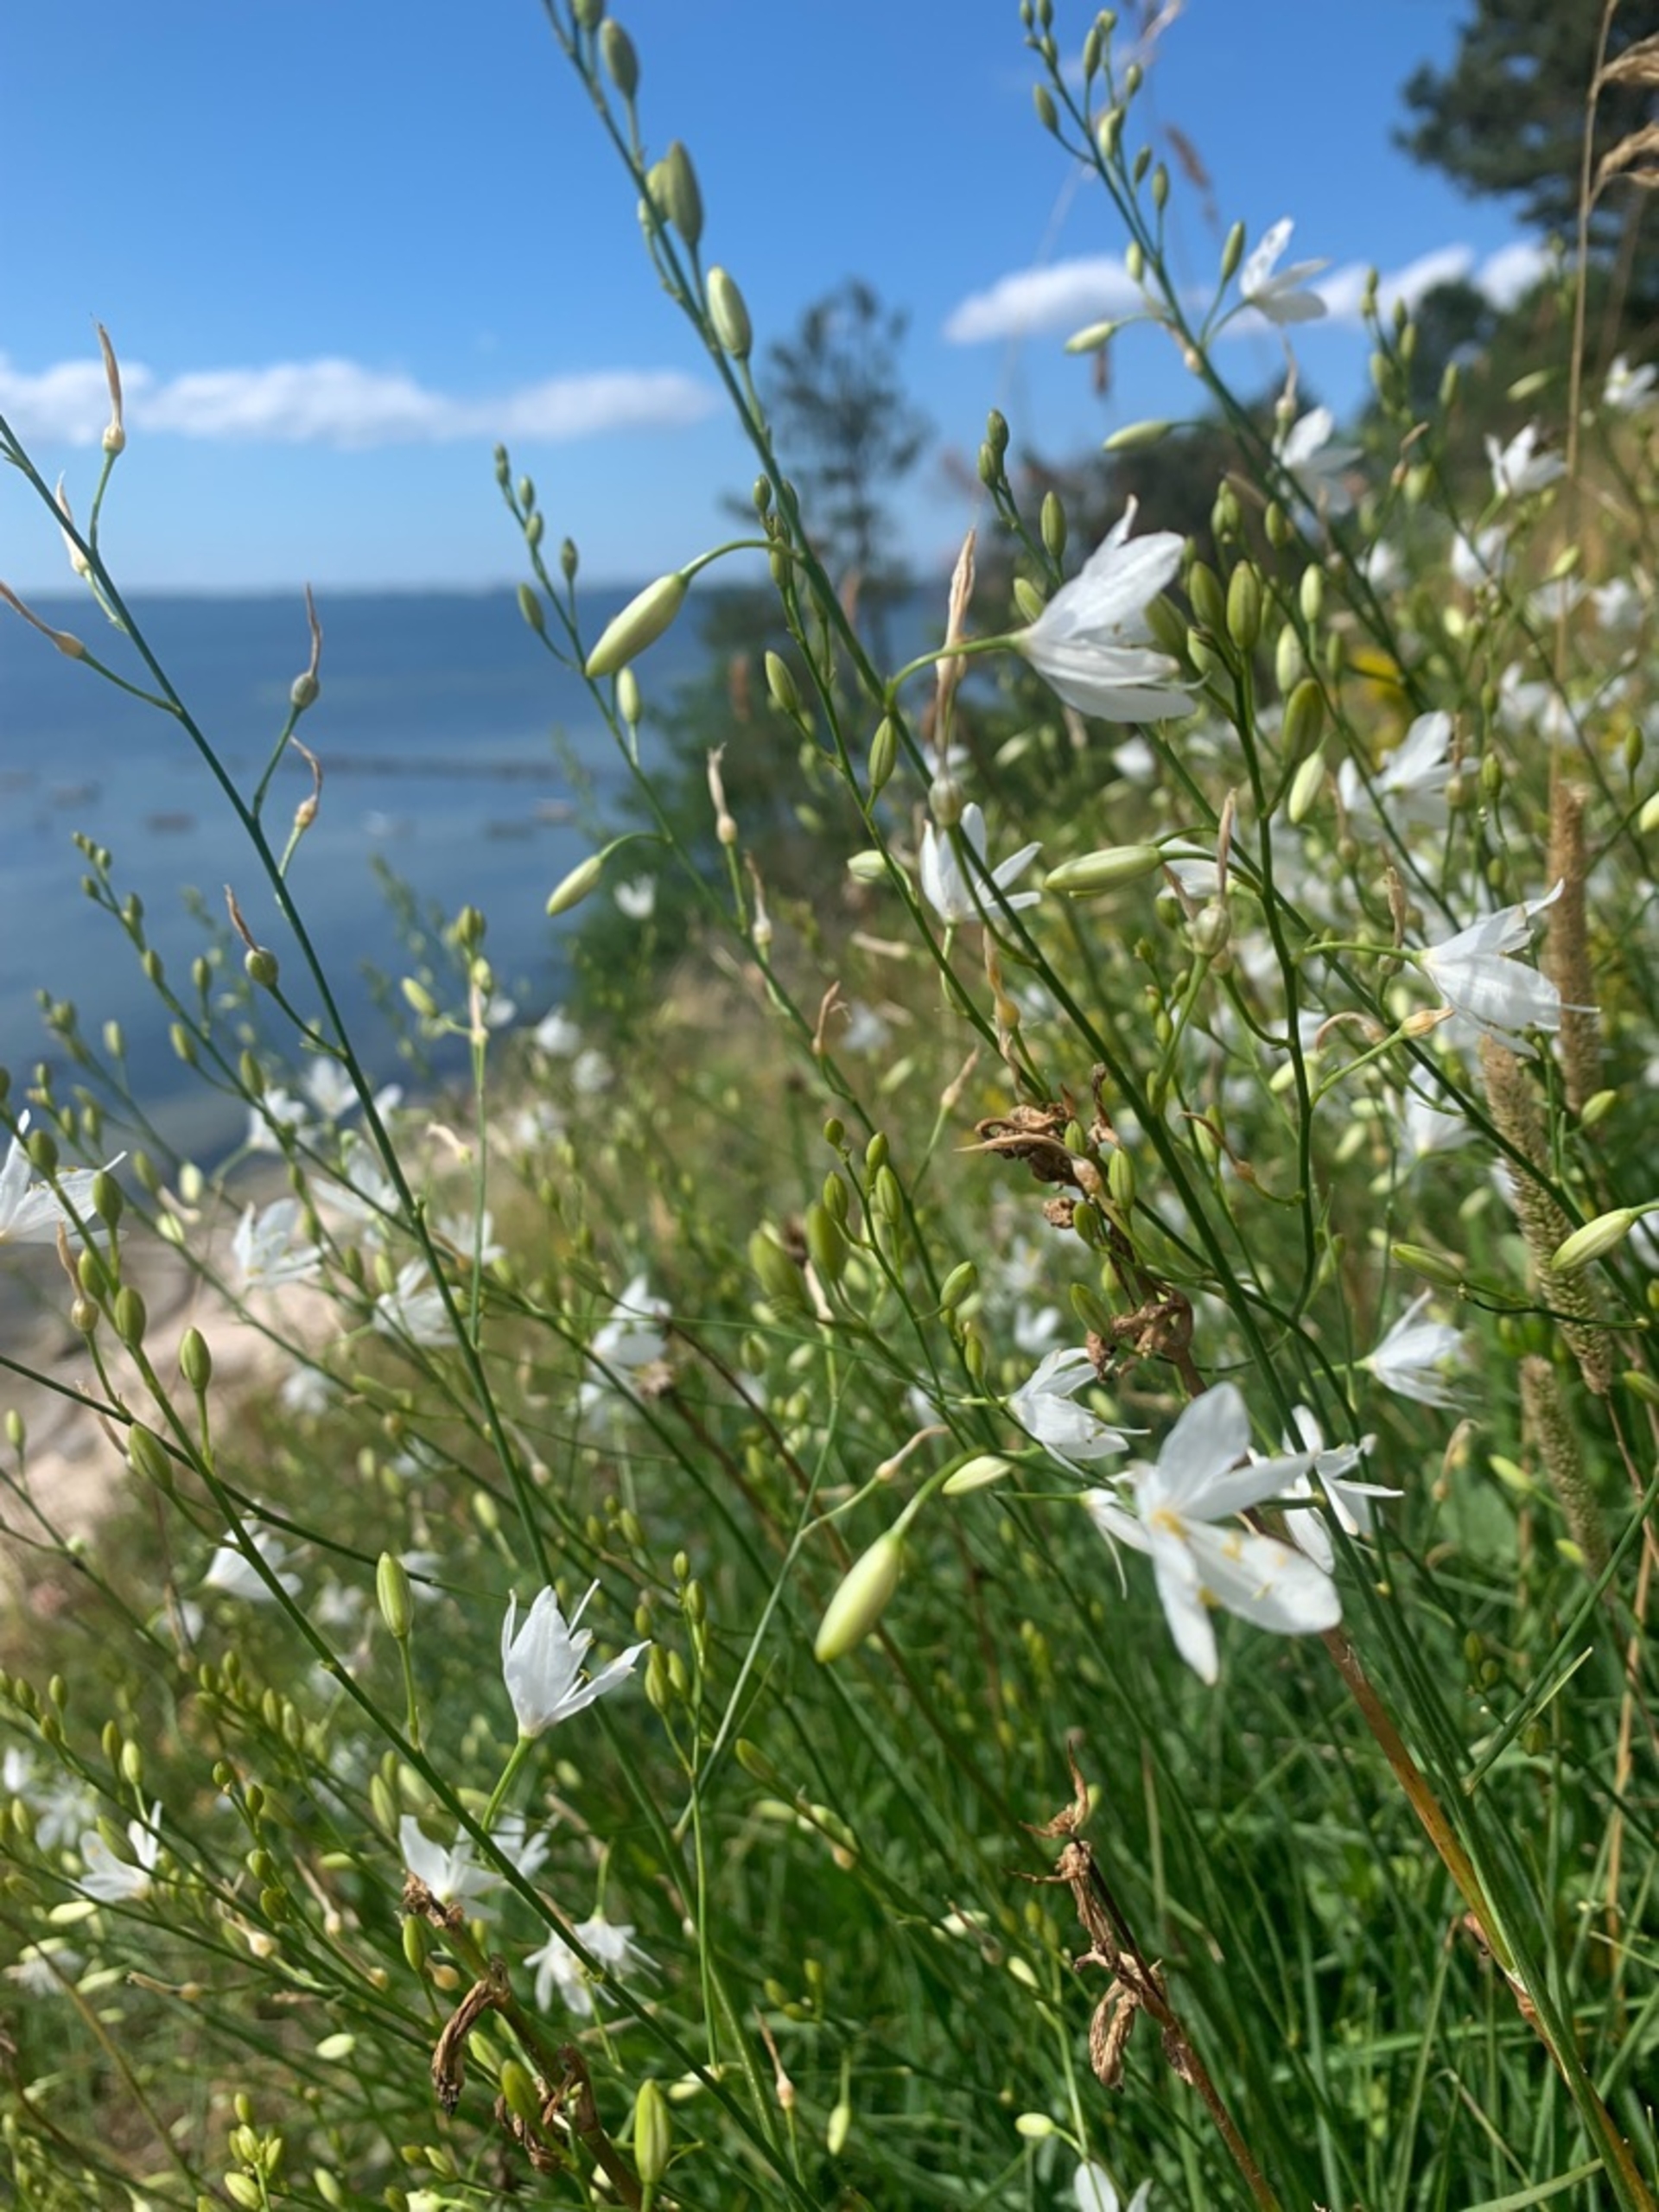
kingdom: Plantae
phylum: Tracheophyta
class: Liliopsida
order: Asparagales
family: Asparagaceae
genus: Anthericum
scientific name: Anthericum ramosum
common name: Grenet edderkopurt
